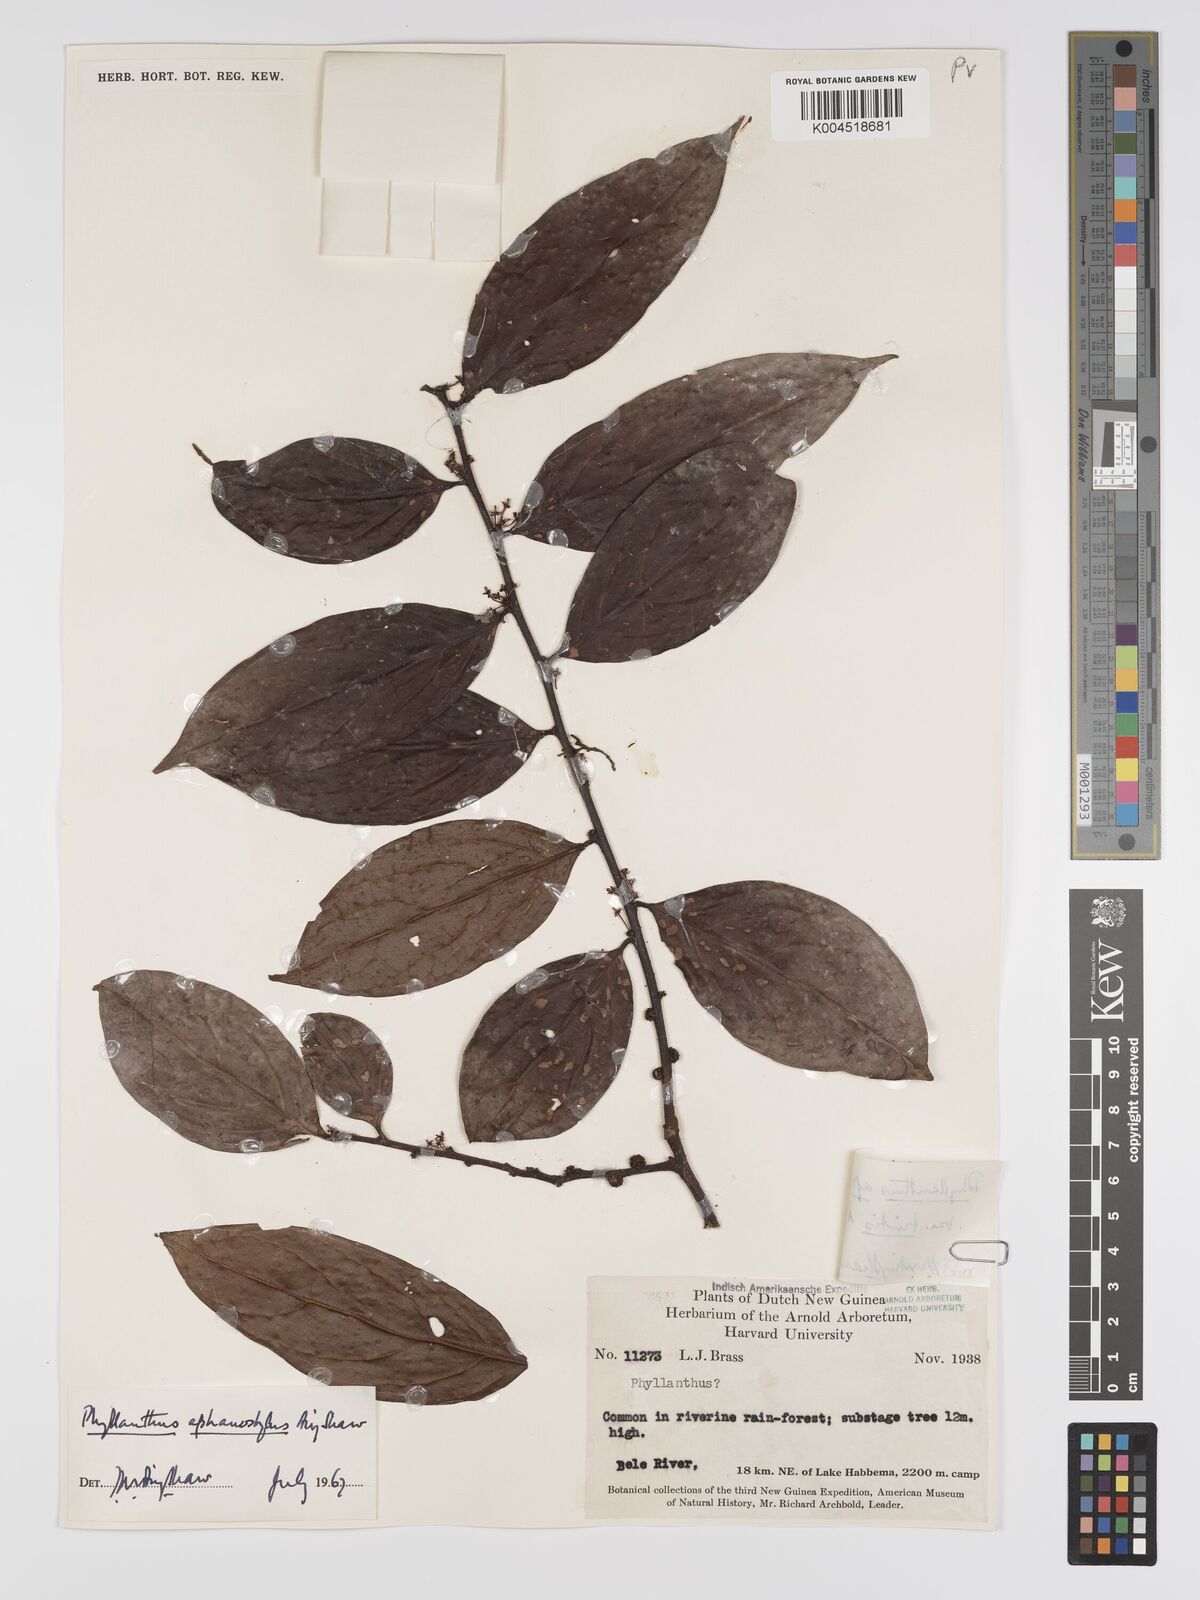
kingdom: Plantae
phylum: Tracheophyta
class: Magnoliopsida
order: Malpighiales
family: Phyllanthaceae
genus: Phyllanthus
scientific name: Phyllanthus aphanostylus
